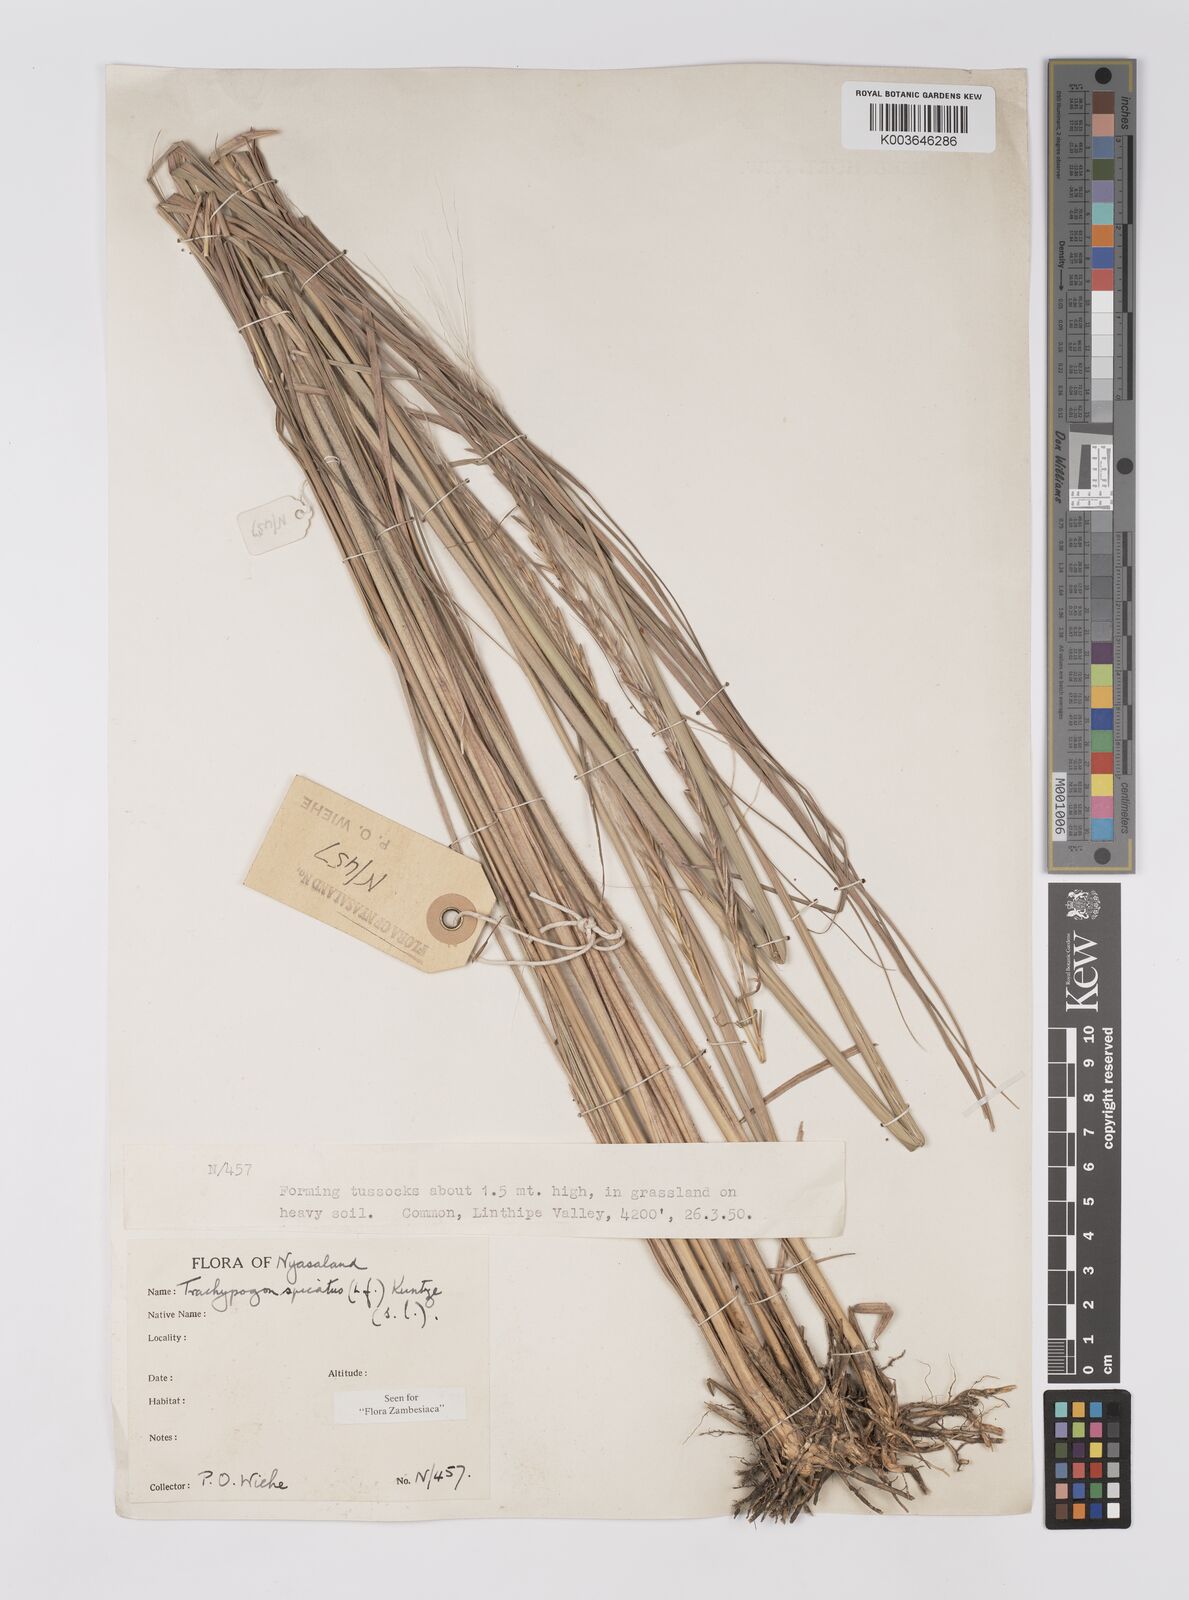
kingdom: Plantae
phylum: Tracheophyta
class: Liliopsida
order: Poales
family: Poaceae
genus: Trachypogon
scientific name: Trachypogon spicatus
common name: Crinkle-awn
